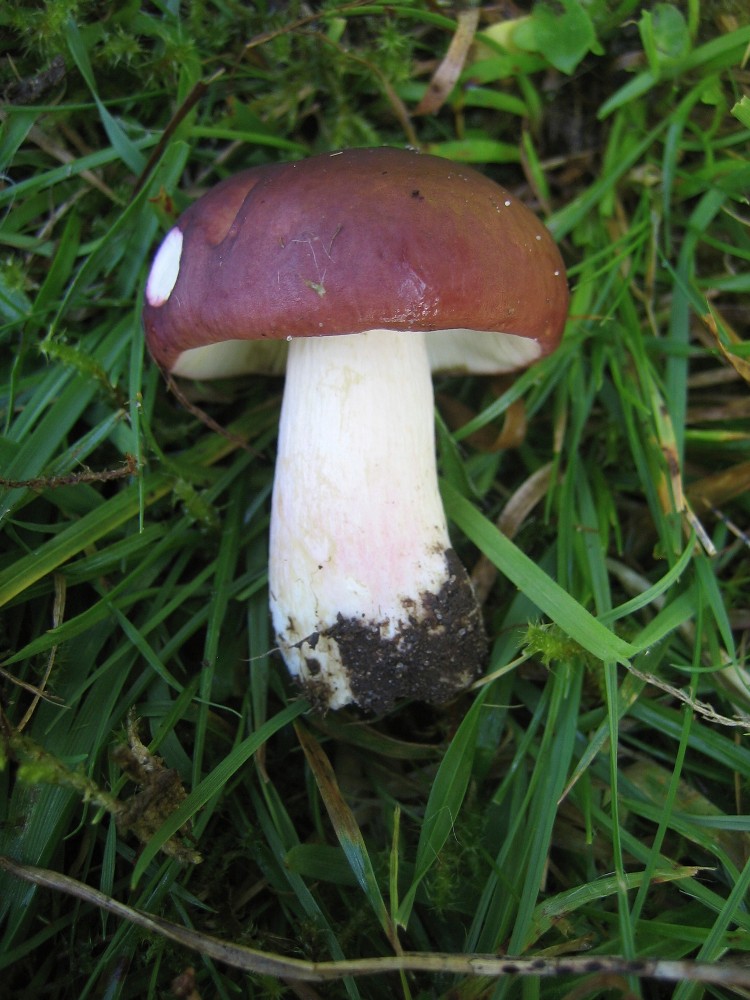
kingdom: Fungi
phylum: Basidiomycota
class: Agaricomycetes
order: Russulales
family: Russulaceae
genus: Russula
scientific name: Russula xerampelina
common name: hummer-skørhat
